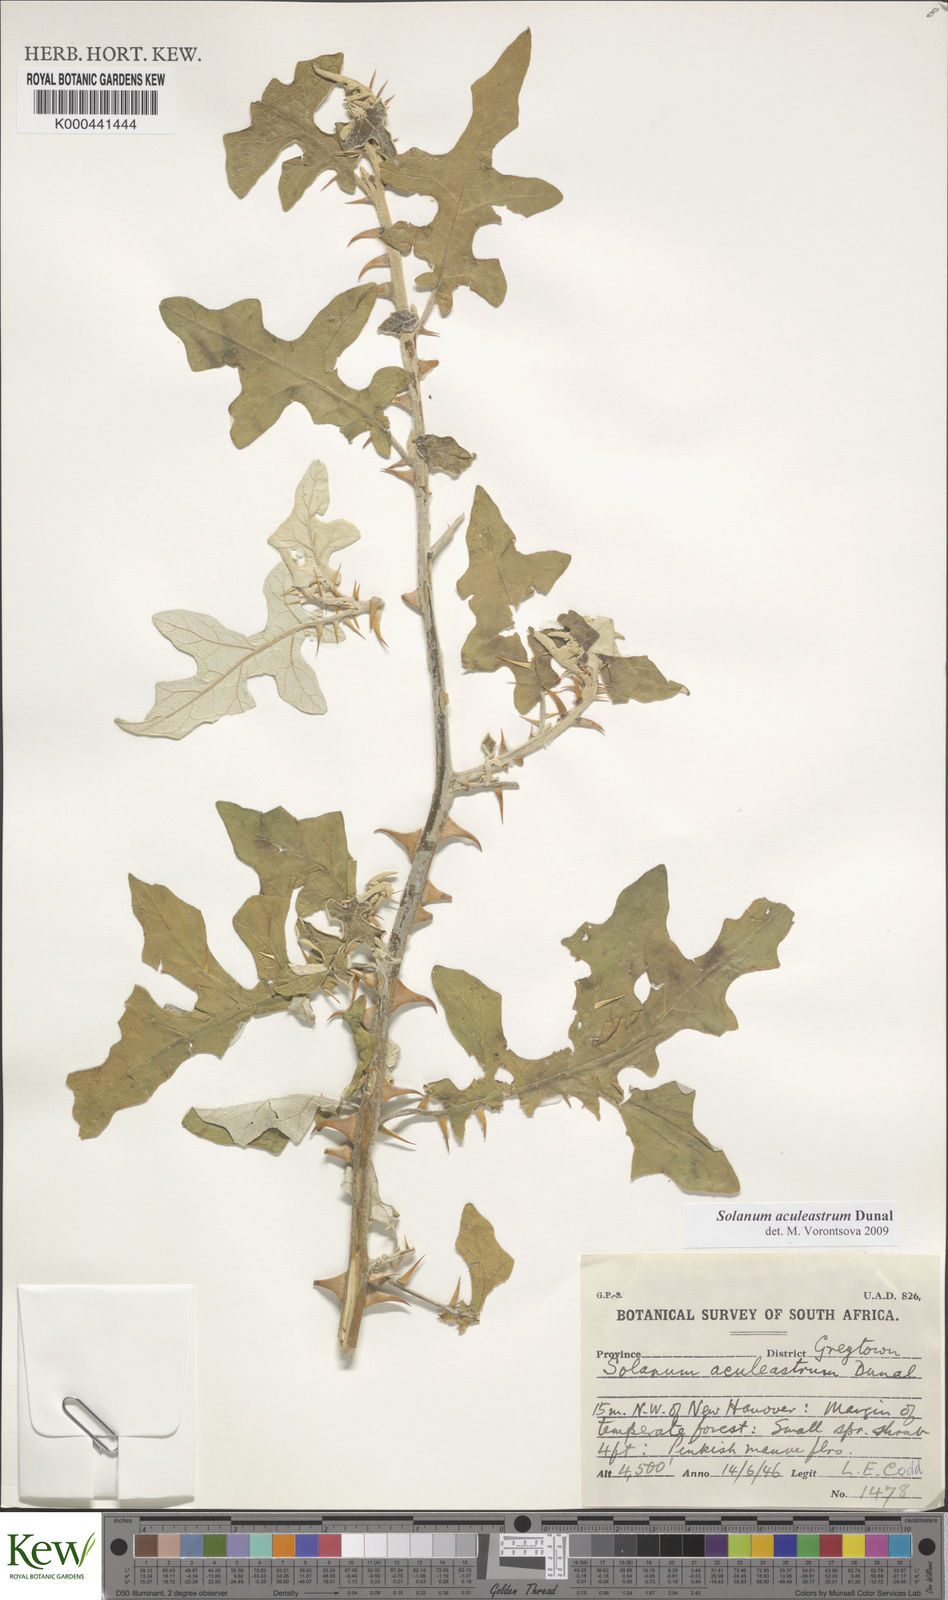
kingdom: Plantae
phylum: Tracheophyta
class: Magnoliopsida
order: Solanales
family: Solanaceae
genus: Solanum
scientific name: Solanum aculeastrum
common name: Goat bitter-apple
